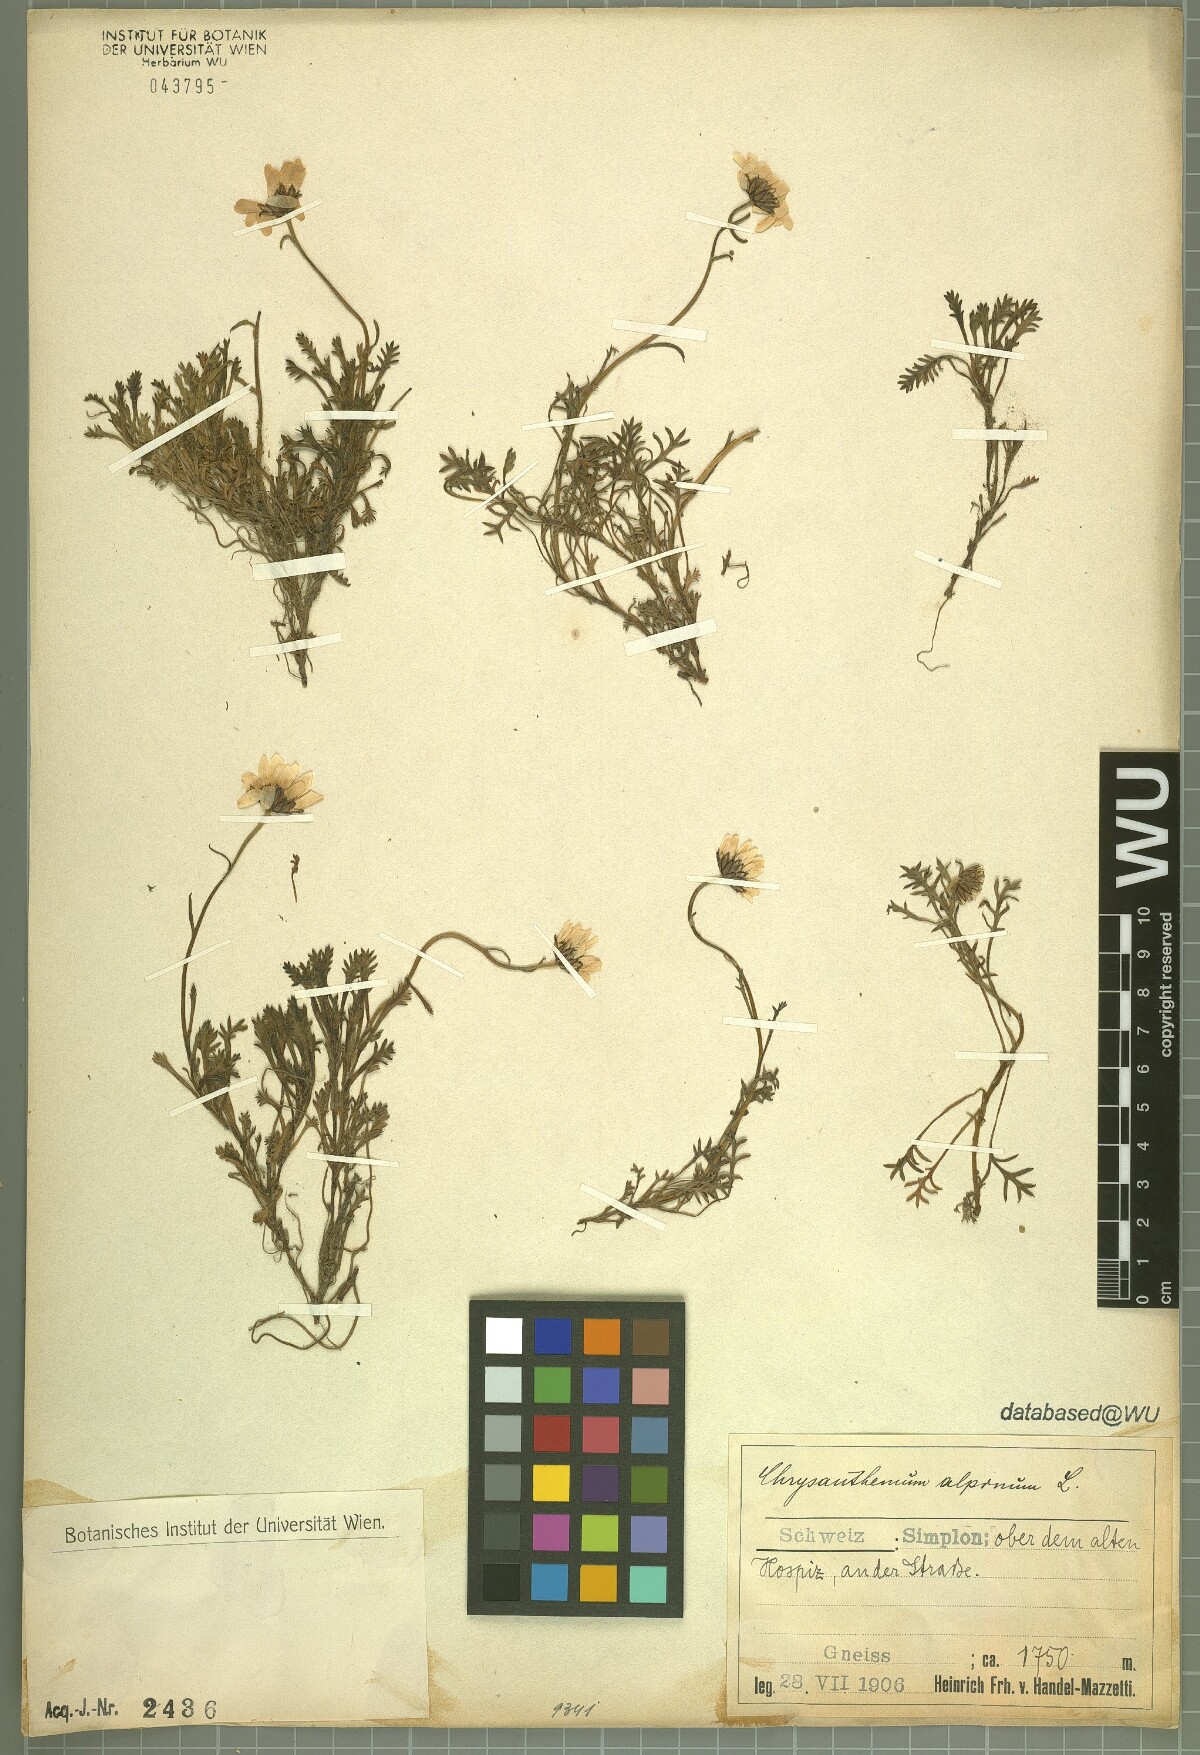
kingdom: Plantae
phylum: Tracheophyta
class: Magnoliopsida
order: Asterales
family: Asteraceae
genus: Leucanthemopsis
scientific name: Leucanthemopsis alpina
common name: Alpine moon daisy
